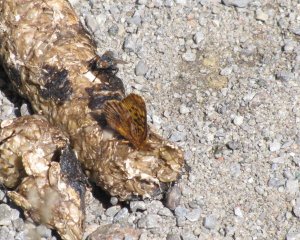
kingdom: Animalia
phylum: Arthropoda
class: Insecta
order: Lepidoptera
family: Nymphalidae
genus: Clossiana
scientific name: Clossiana toddi
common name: Meadow Fritillary
